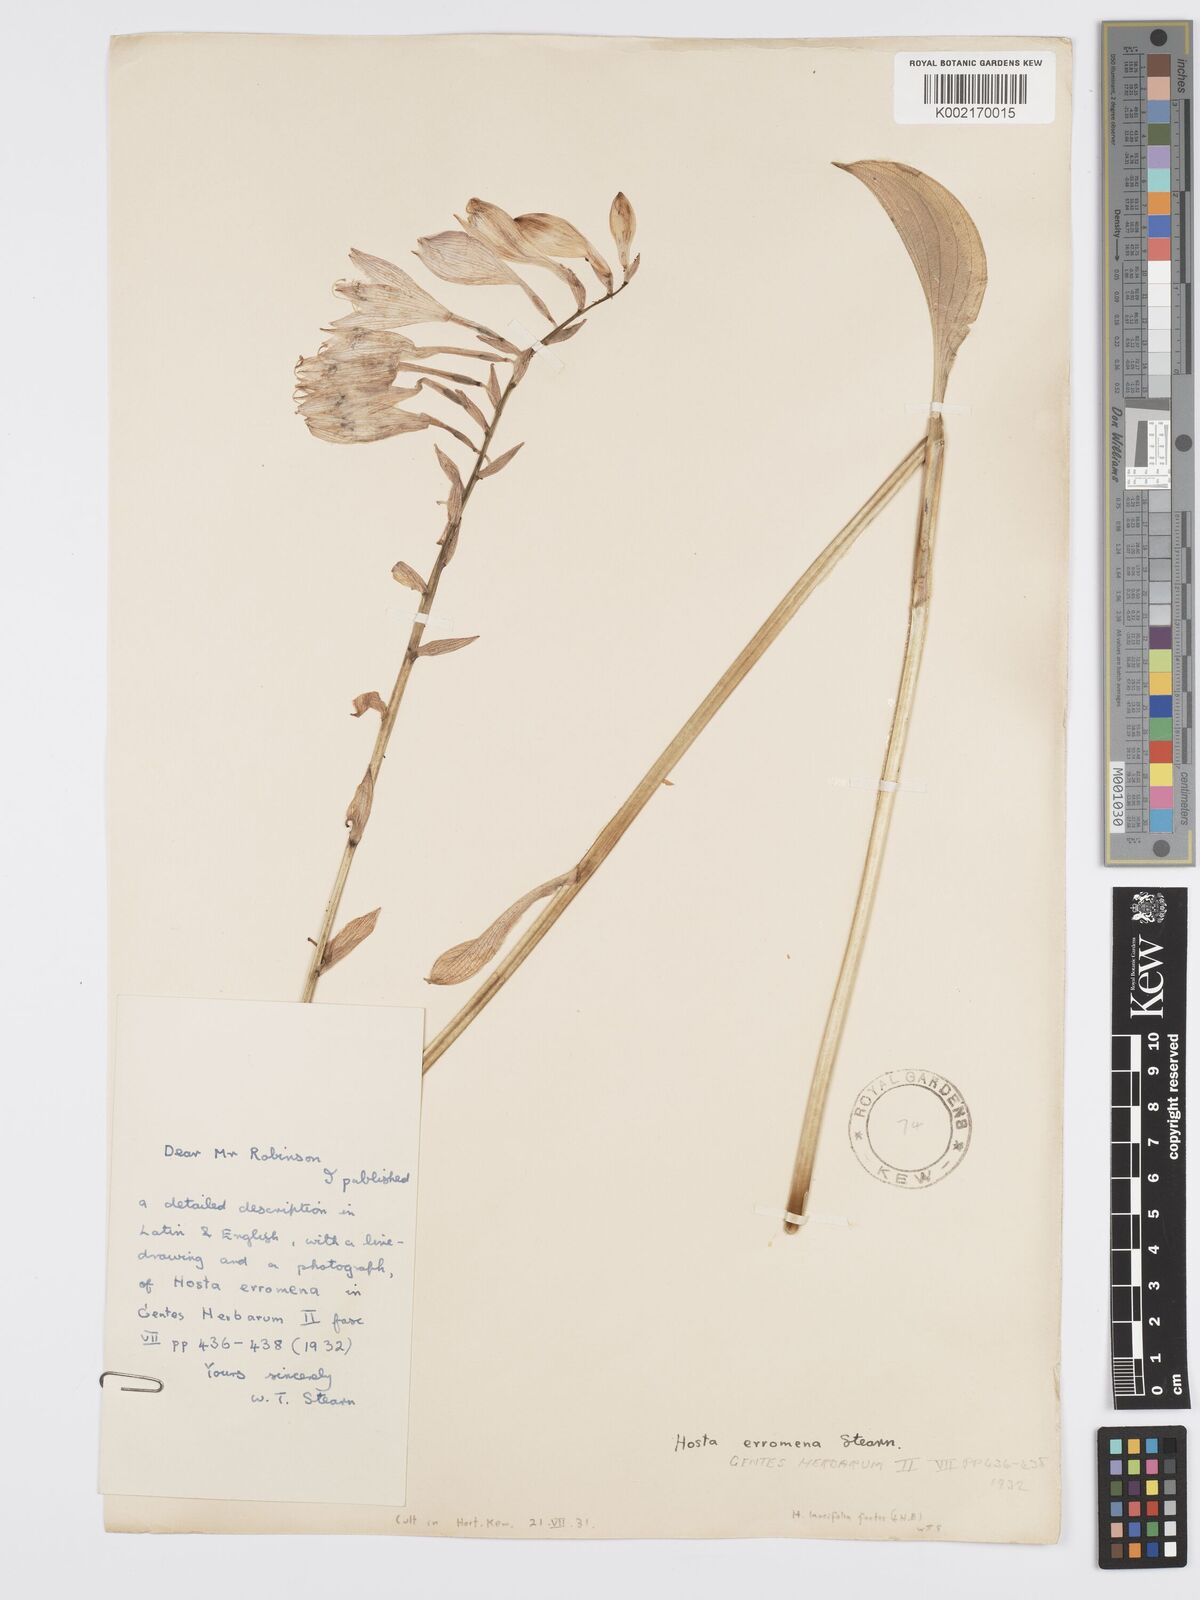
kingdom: Plantae
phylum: Tracheophyta
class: Liliopsida
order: Asparagales
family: Asparagaceae
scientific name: Asparagaceae
